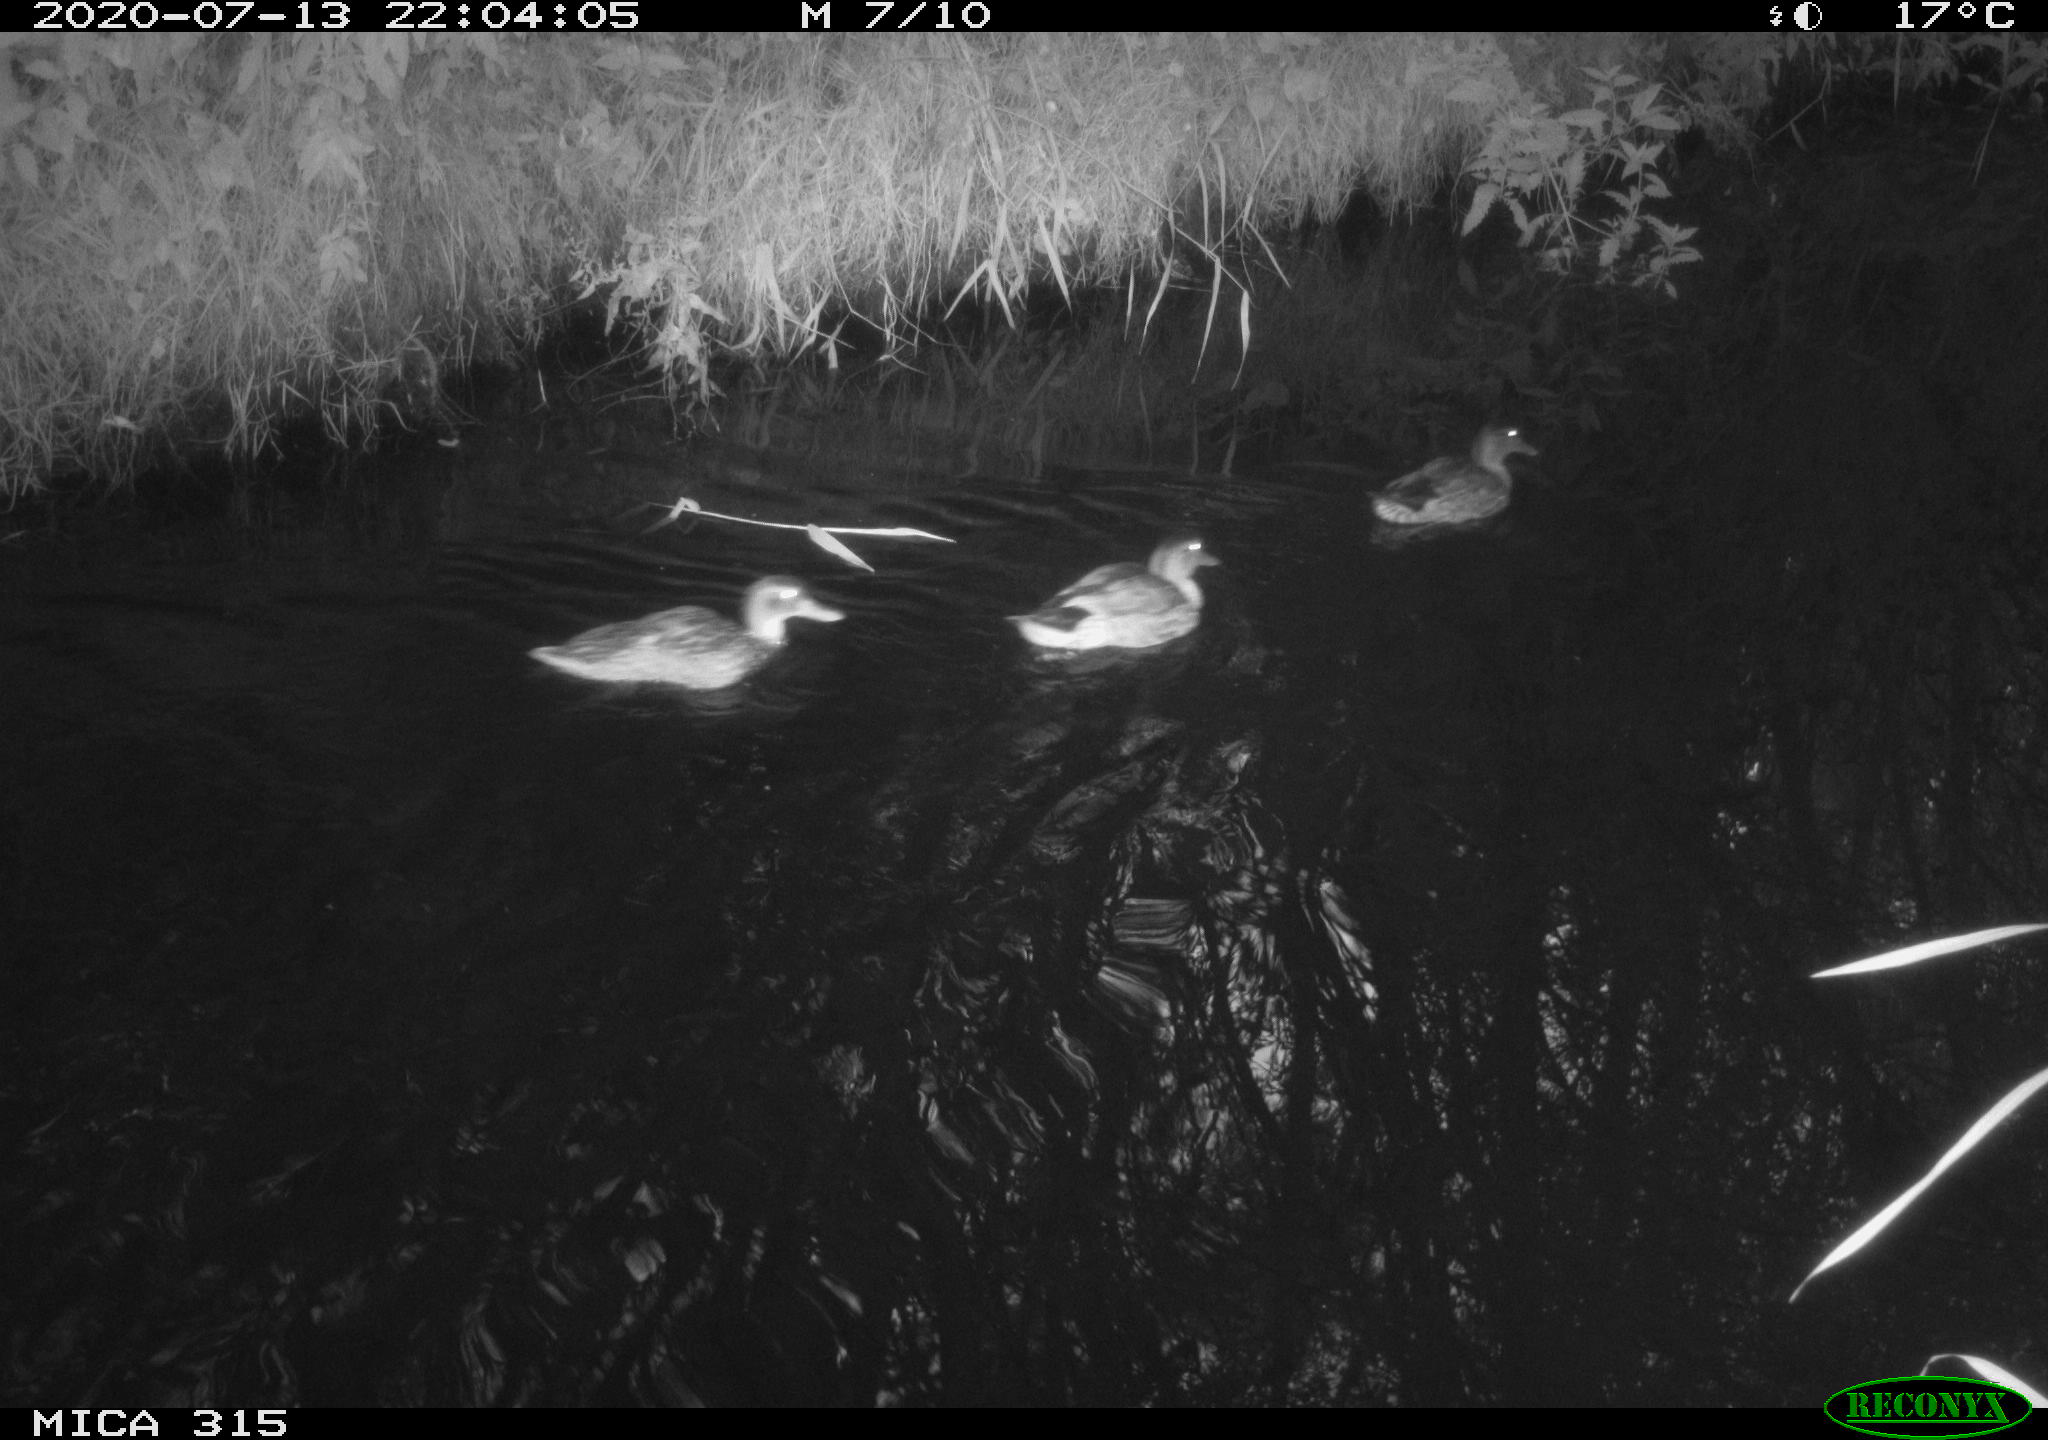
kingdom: Animalia
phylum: Chordata
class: Aves
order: Anseriformes
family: Anatidae
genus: Anas
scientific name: Anas platyrhynchos
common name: Mallard
